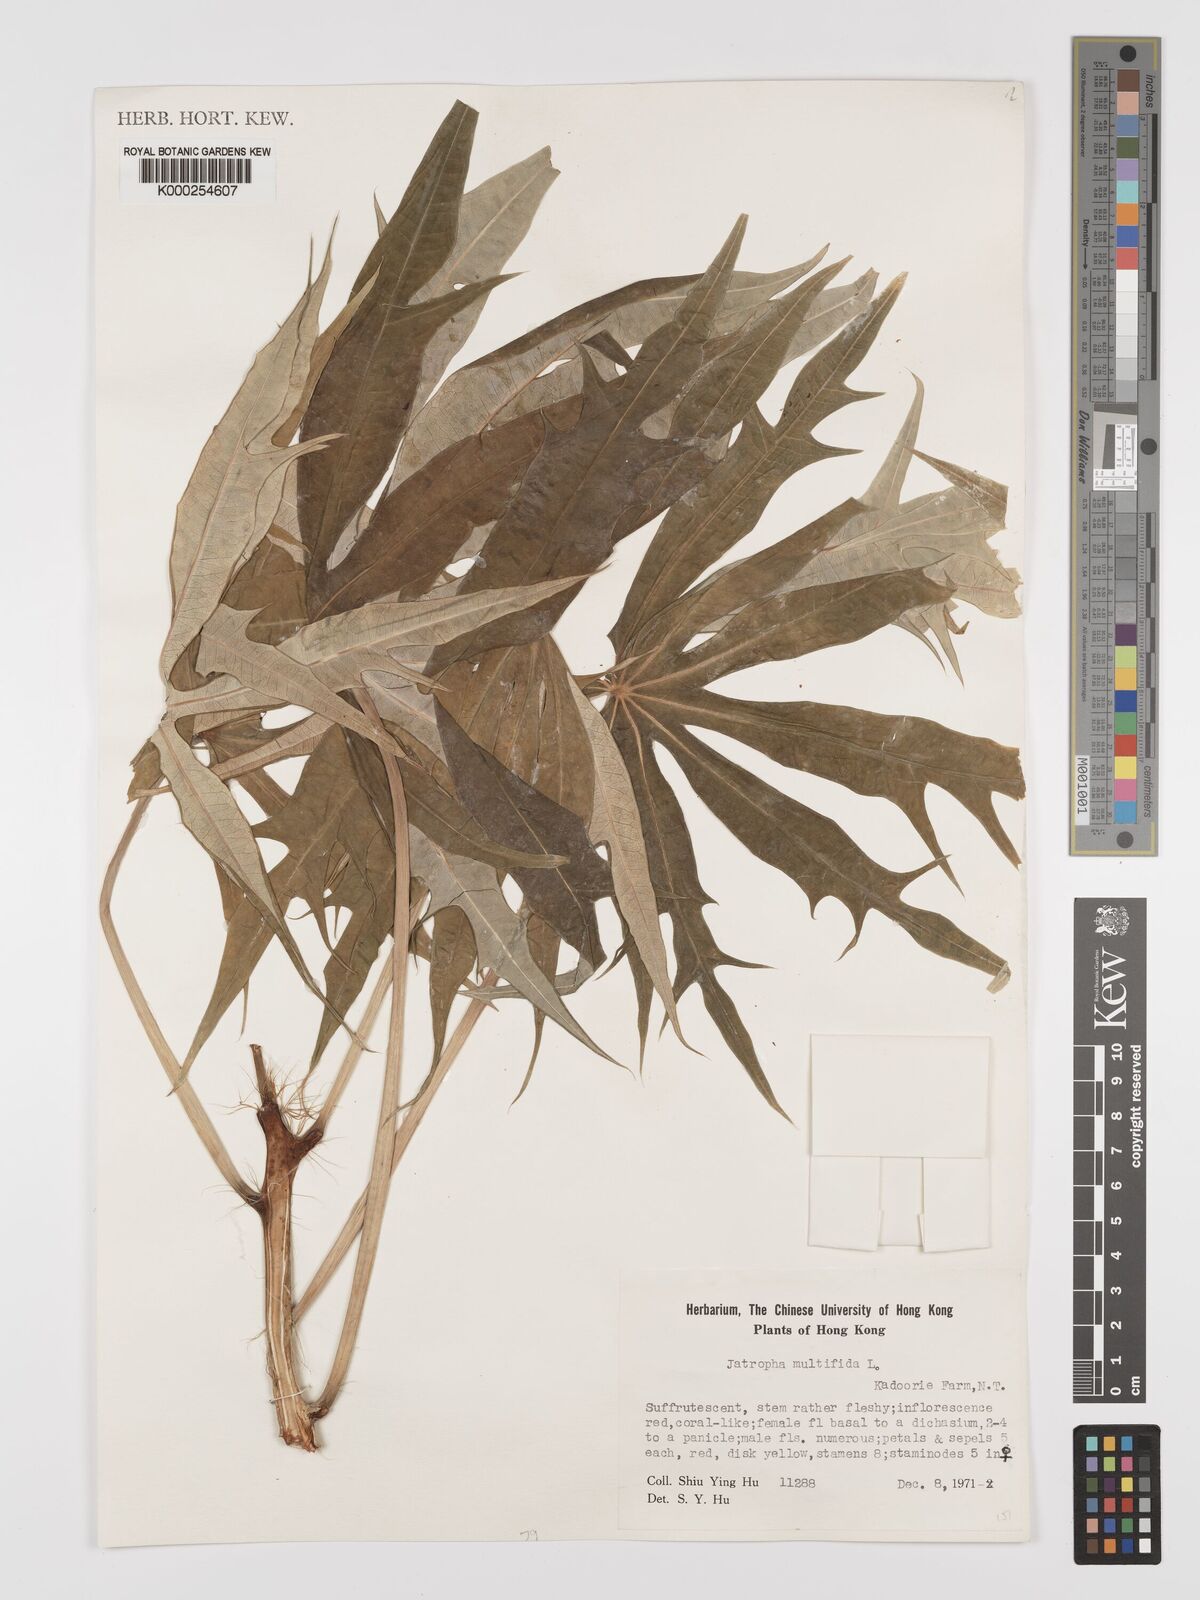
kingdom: Plantae
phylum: Tracheophyta
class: Magnoliopsida
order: Malpighiales
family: Euphorbiaceae
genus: Jatropha
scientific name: Jatropha multifida
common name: Coralbush
